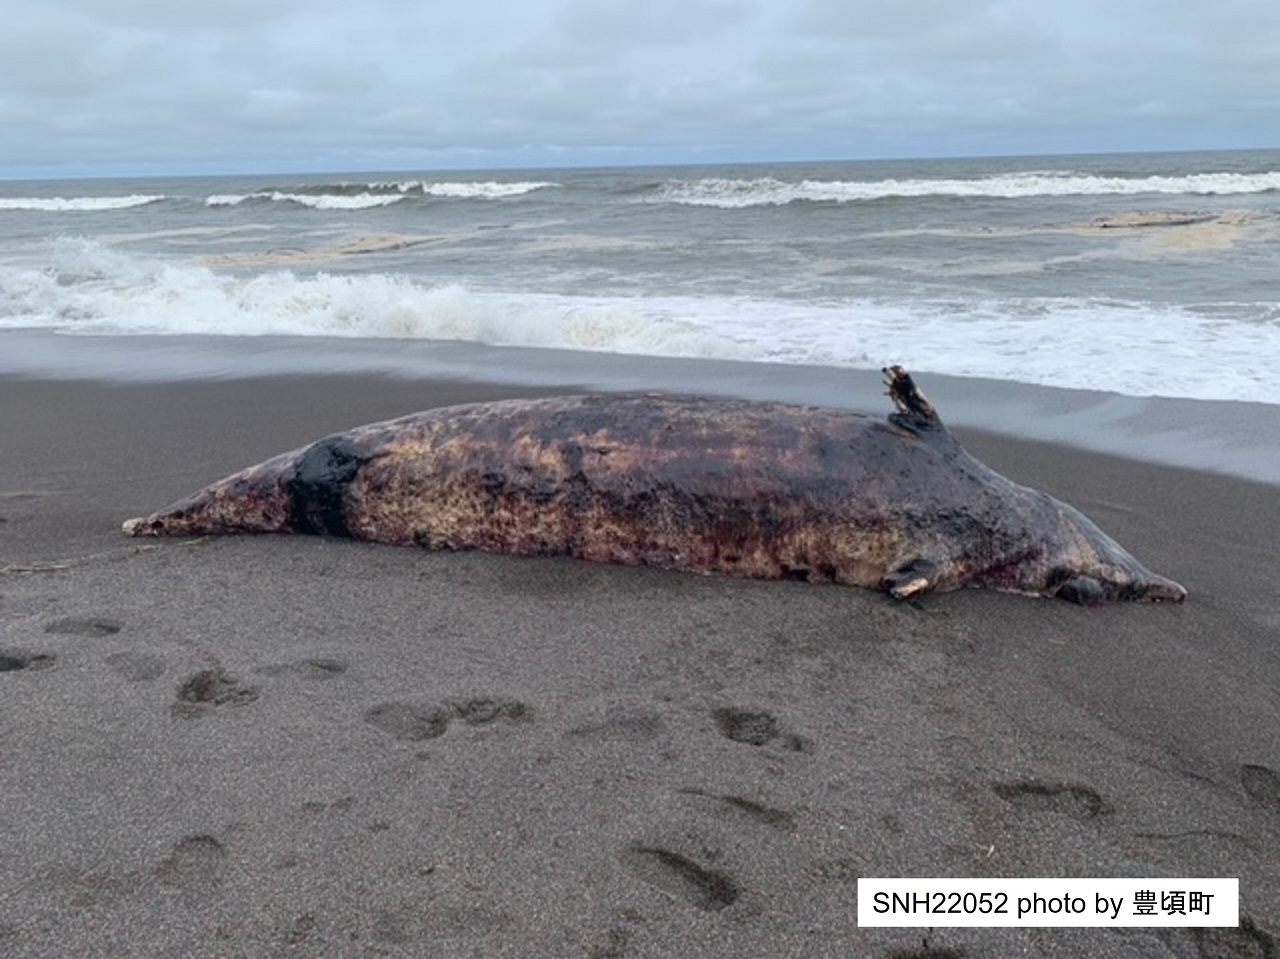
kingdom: Animalia
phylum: Chordata
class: Mammalia
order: Cetacea
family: Hyperoodontidae
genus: Ziphius
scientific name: Ziphius cavirostris
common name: Cuvier's beaked whale
